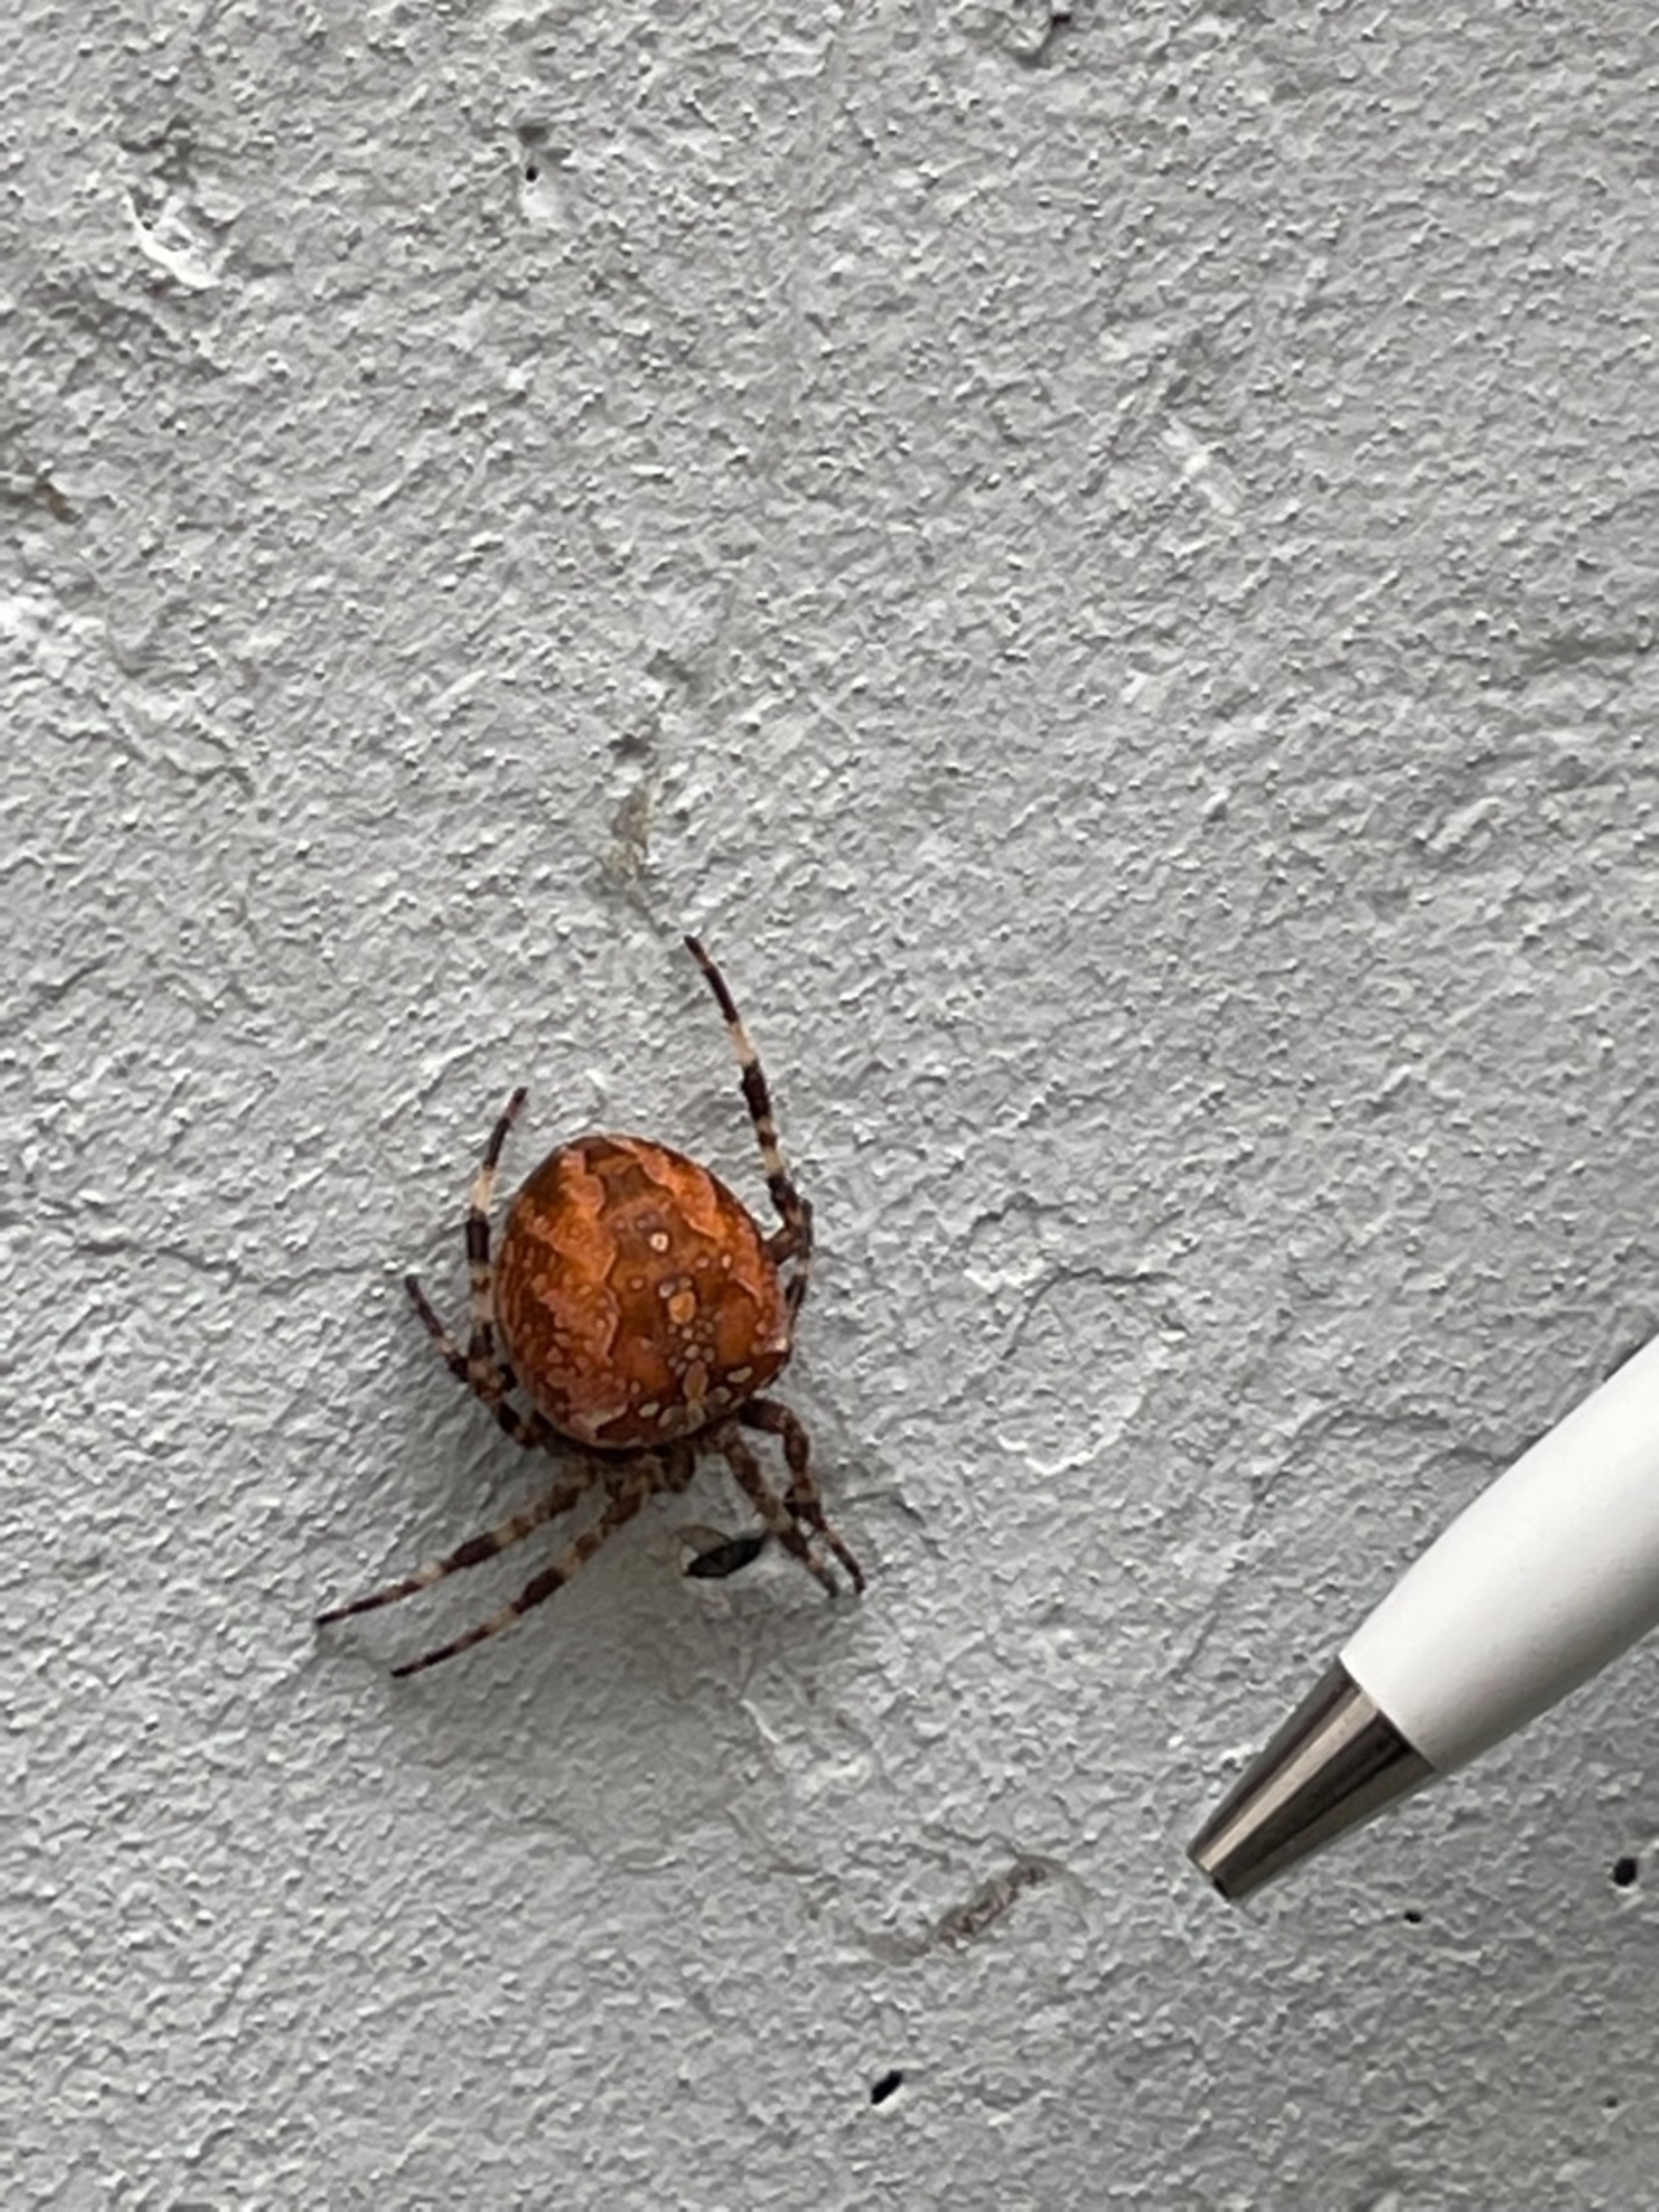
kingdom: Animalia
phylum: Arthropoda
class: Arachnida
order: Araneae
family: Araneidae
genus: Araneus
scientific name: Araneus diadematus
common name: Korsedderkop
